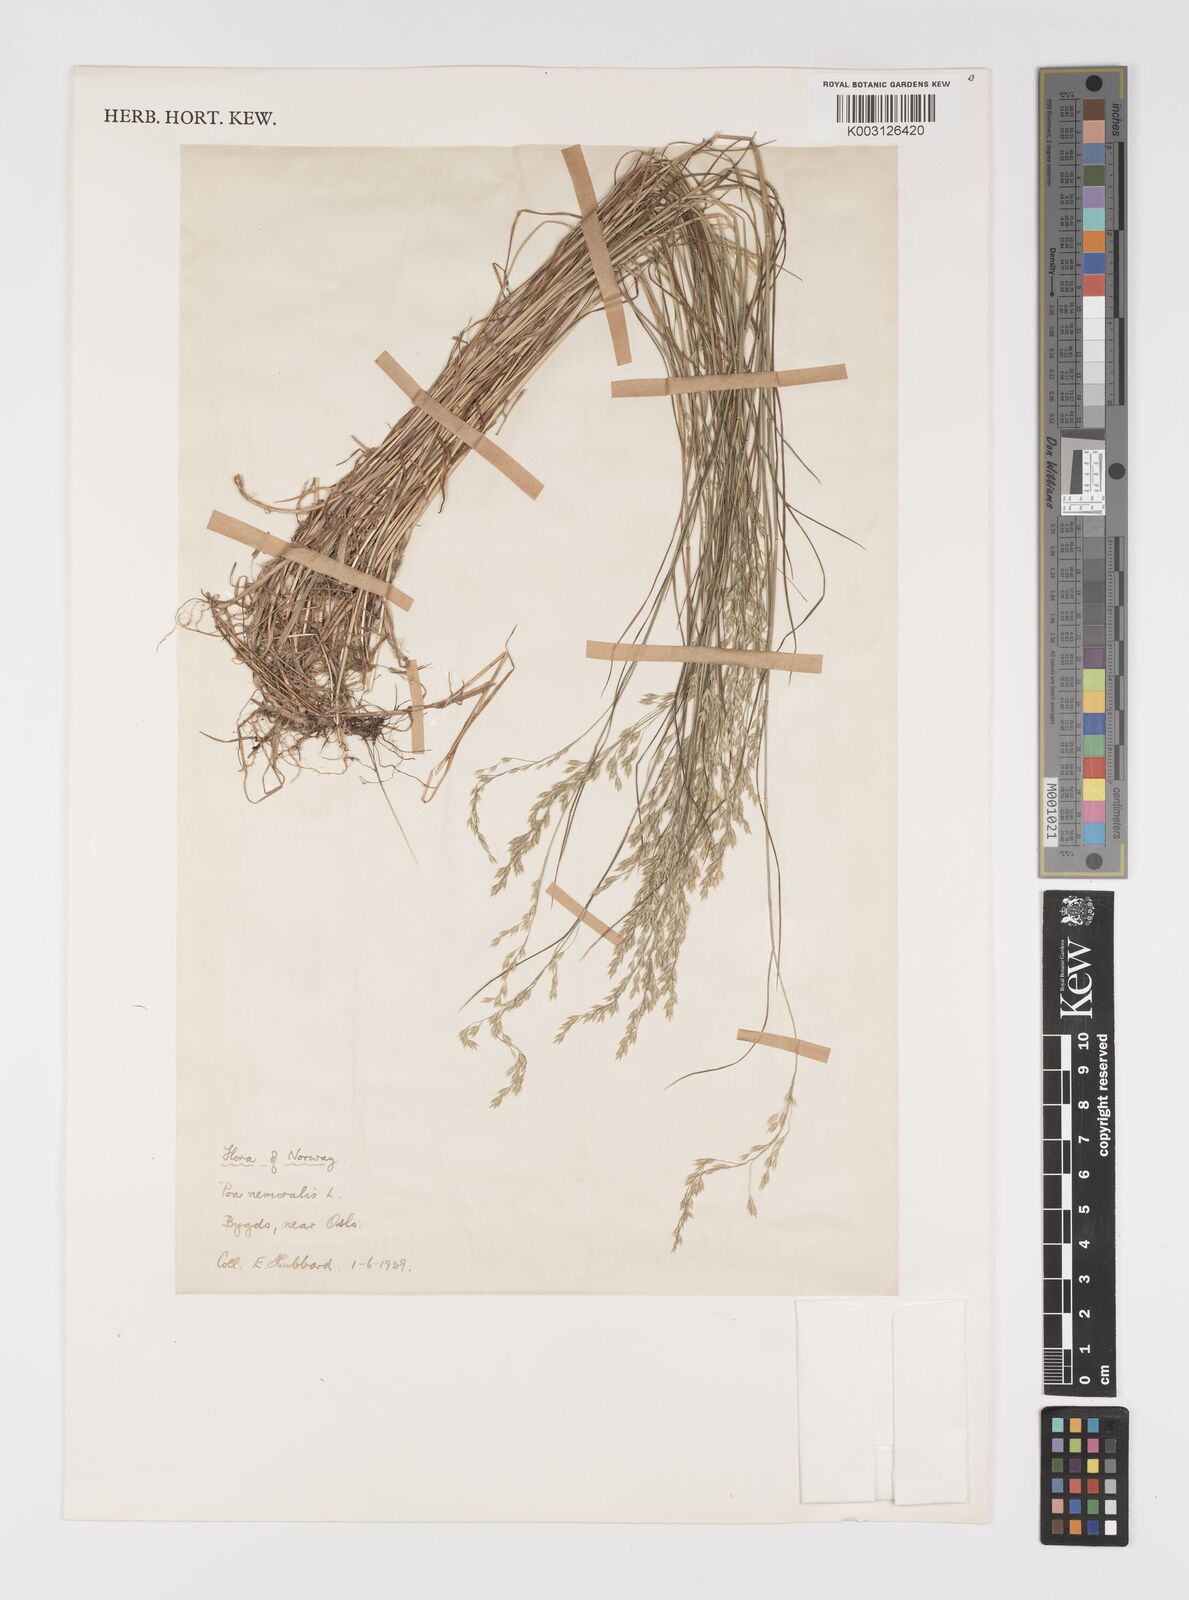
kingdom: Plantae
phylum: Tracheophyta
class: Liliopsida
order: Poales
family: Poaceae
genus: Poa
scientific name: Poa nemoralis
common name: Wood bluegrass
